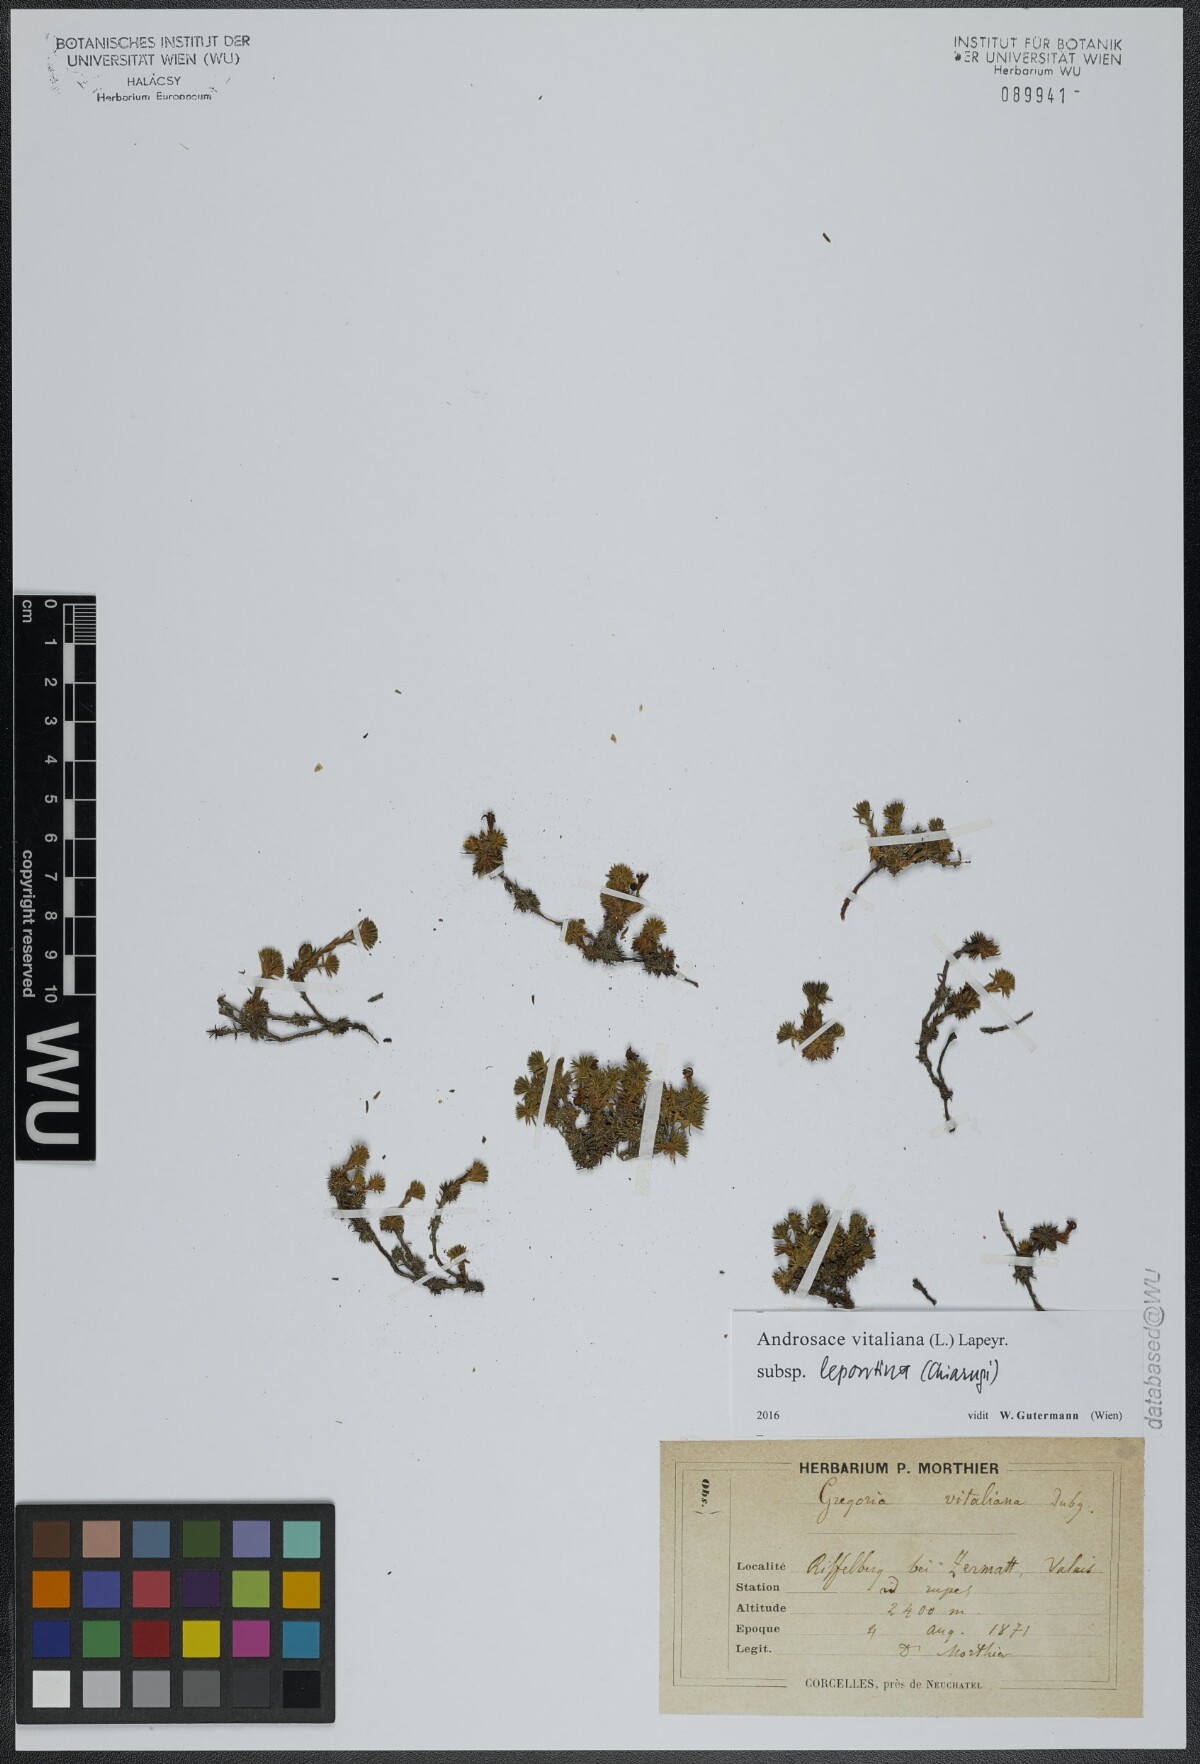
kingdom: Plantae
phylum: Tracheophyta
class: Magnoliopsida
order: Ericales
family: Primulaceae
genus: Androsace
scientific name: Androsace vitaliana
